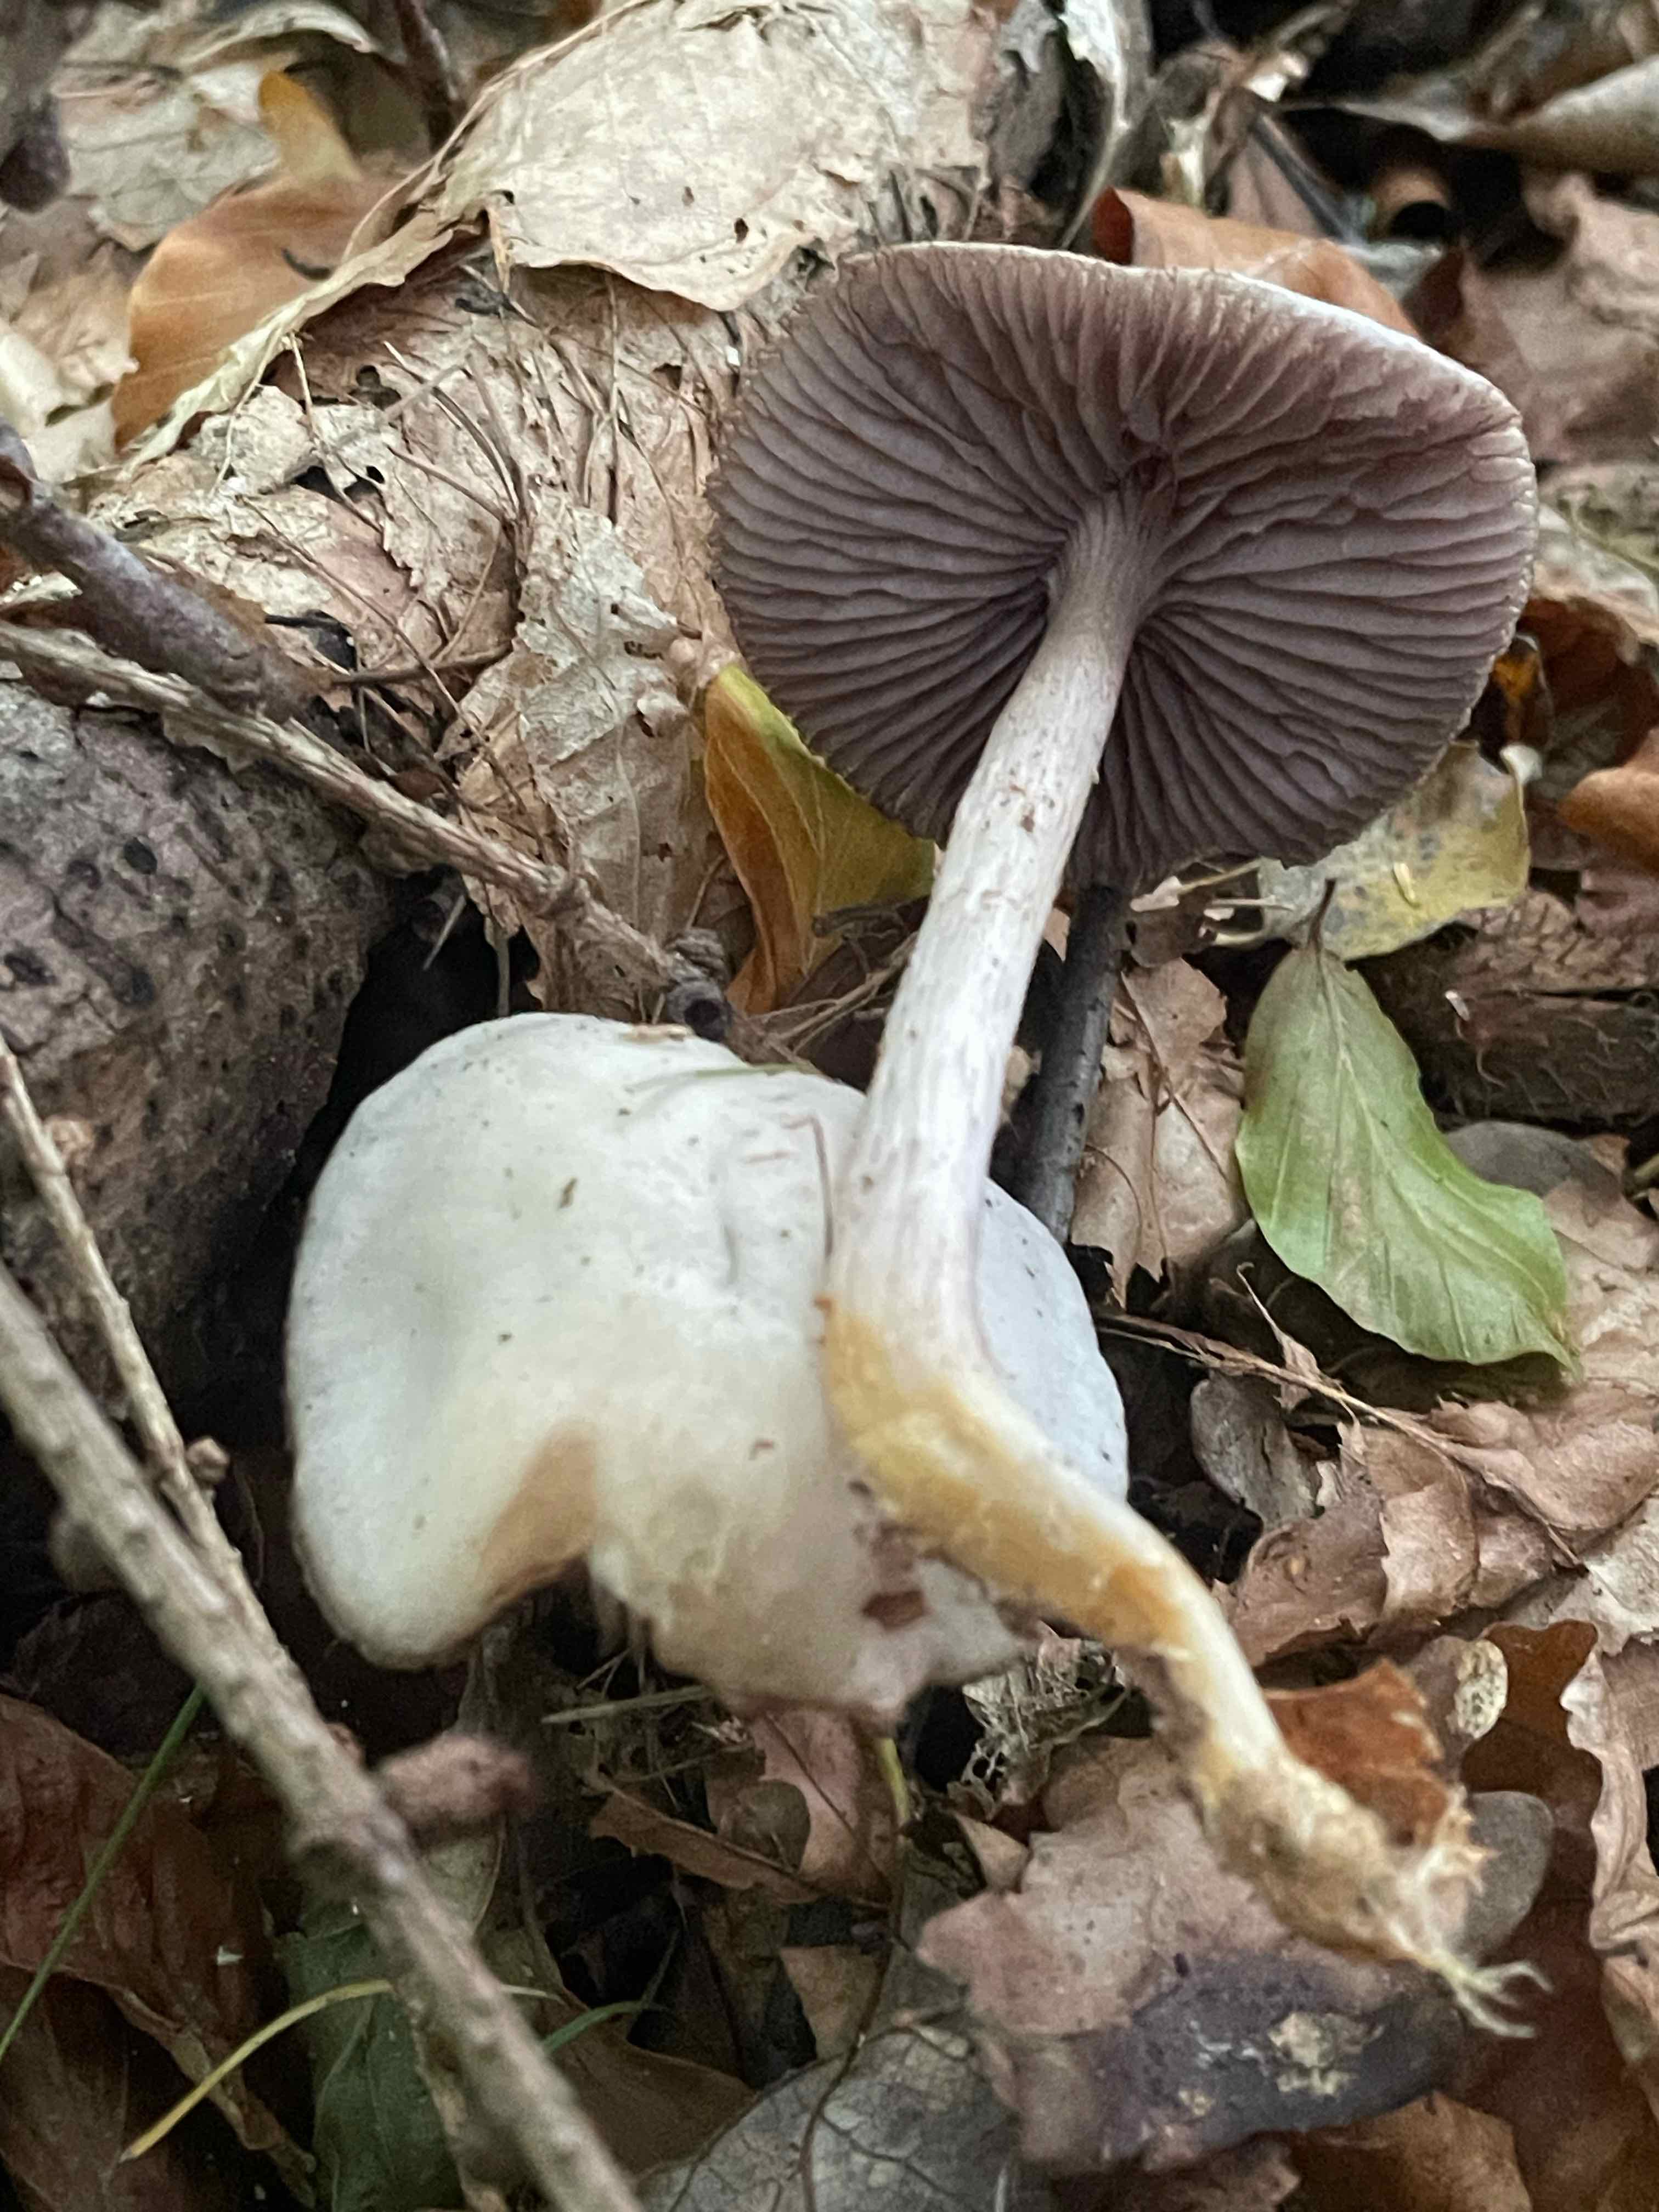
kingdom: Fungi
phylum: Basidiomycota
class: Agaricomycetes
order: Agaricales
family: Mycenaceae
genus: Mycena
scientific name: Mycena pelianthina
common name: mørkbladet huesvamp
